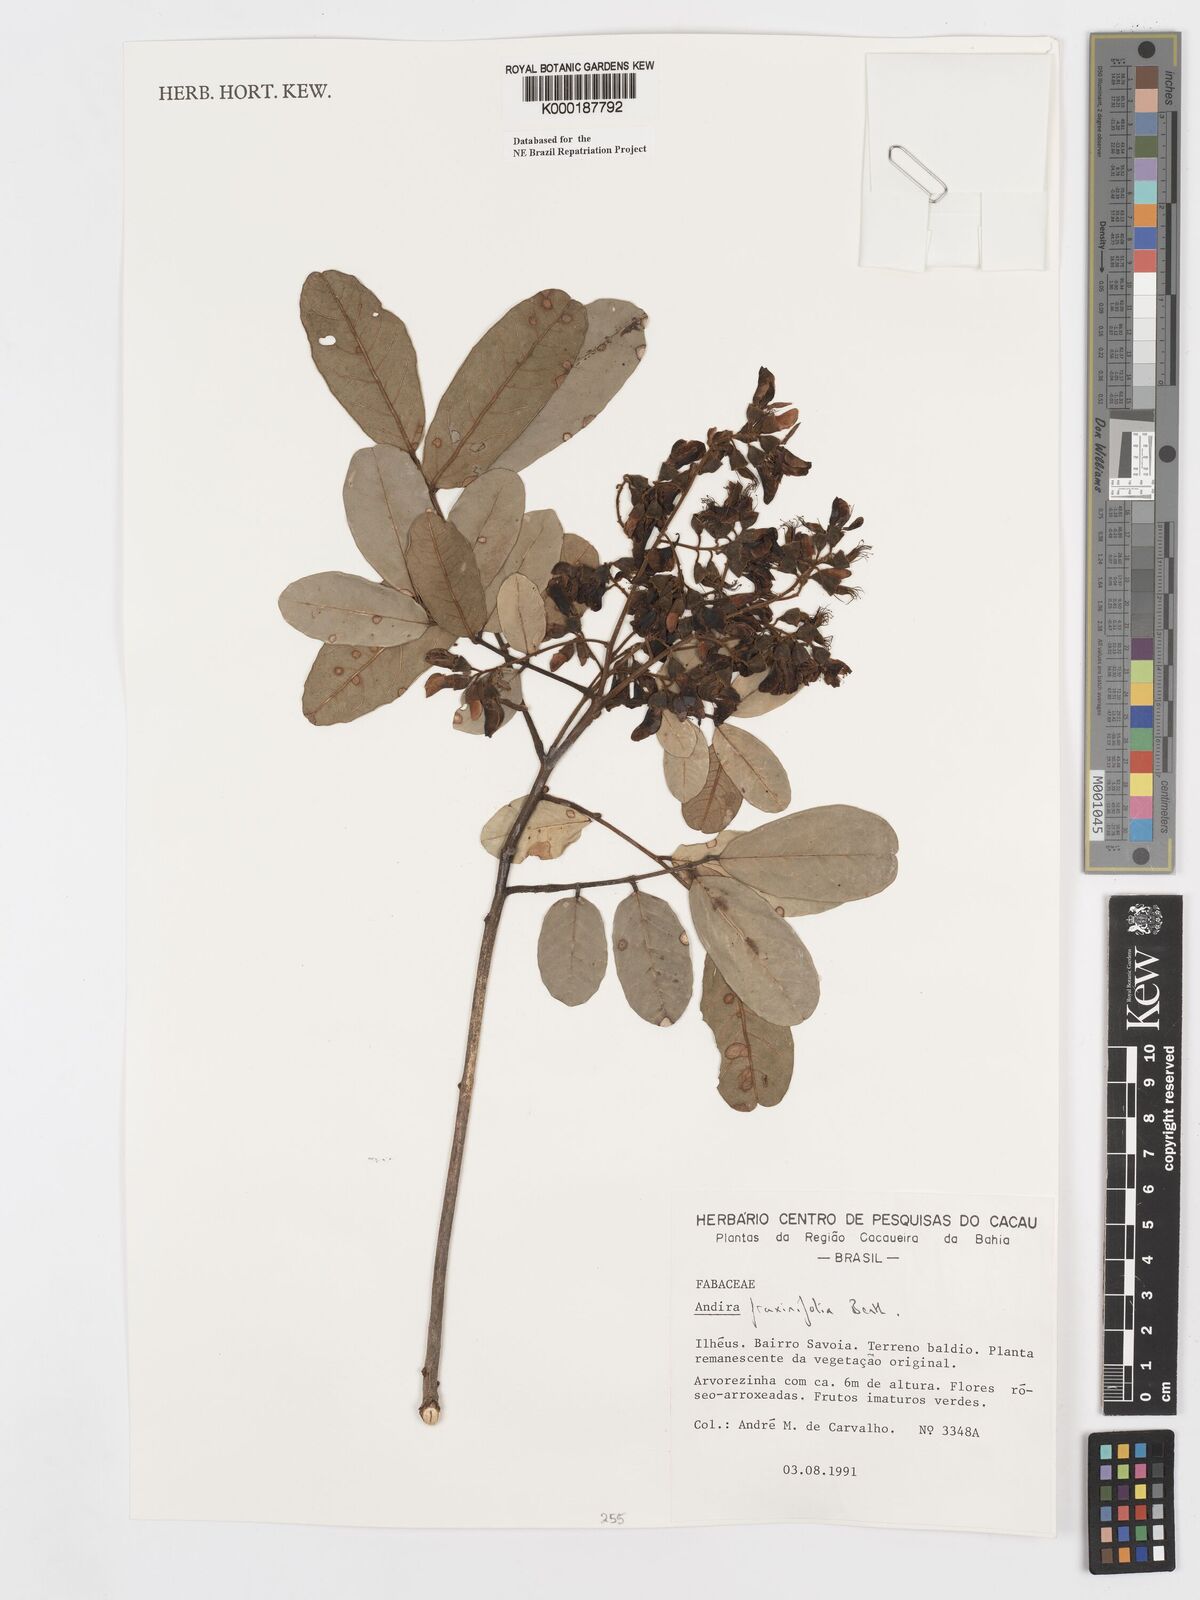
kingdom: Plantae
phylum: Tracheophyta
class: Magnoliopsida
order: Fabales
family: Fabaceae
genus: Andira
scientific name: Andira fraxinifolia
